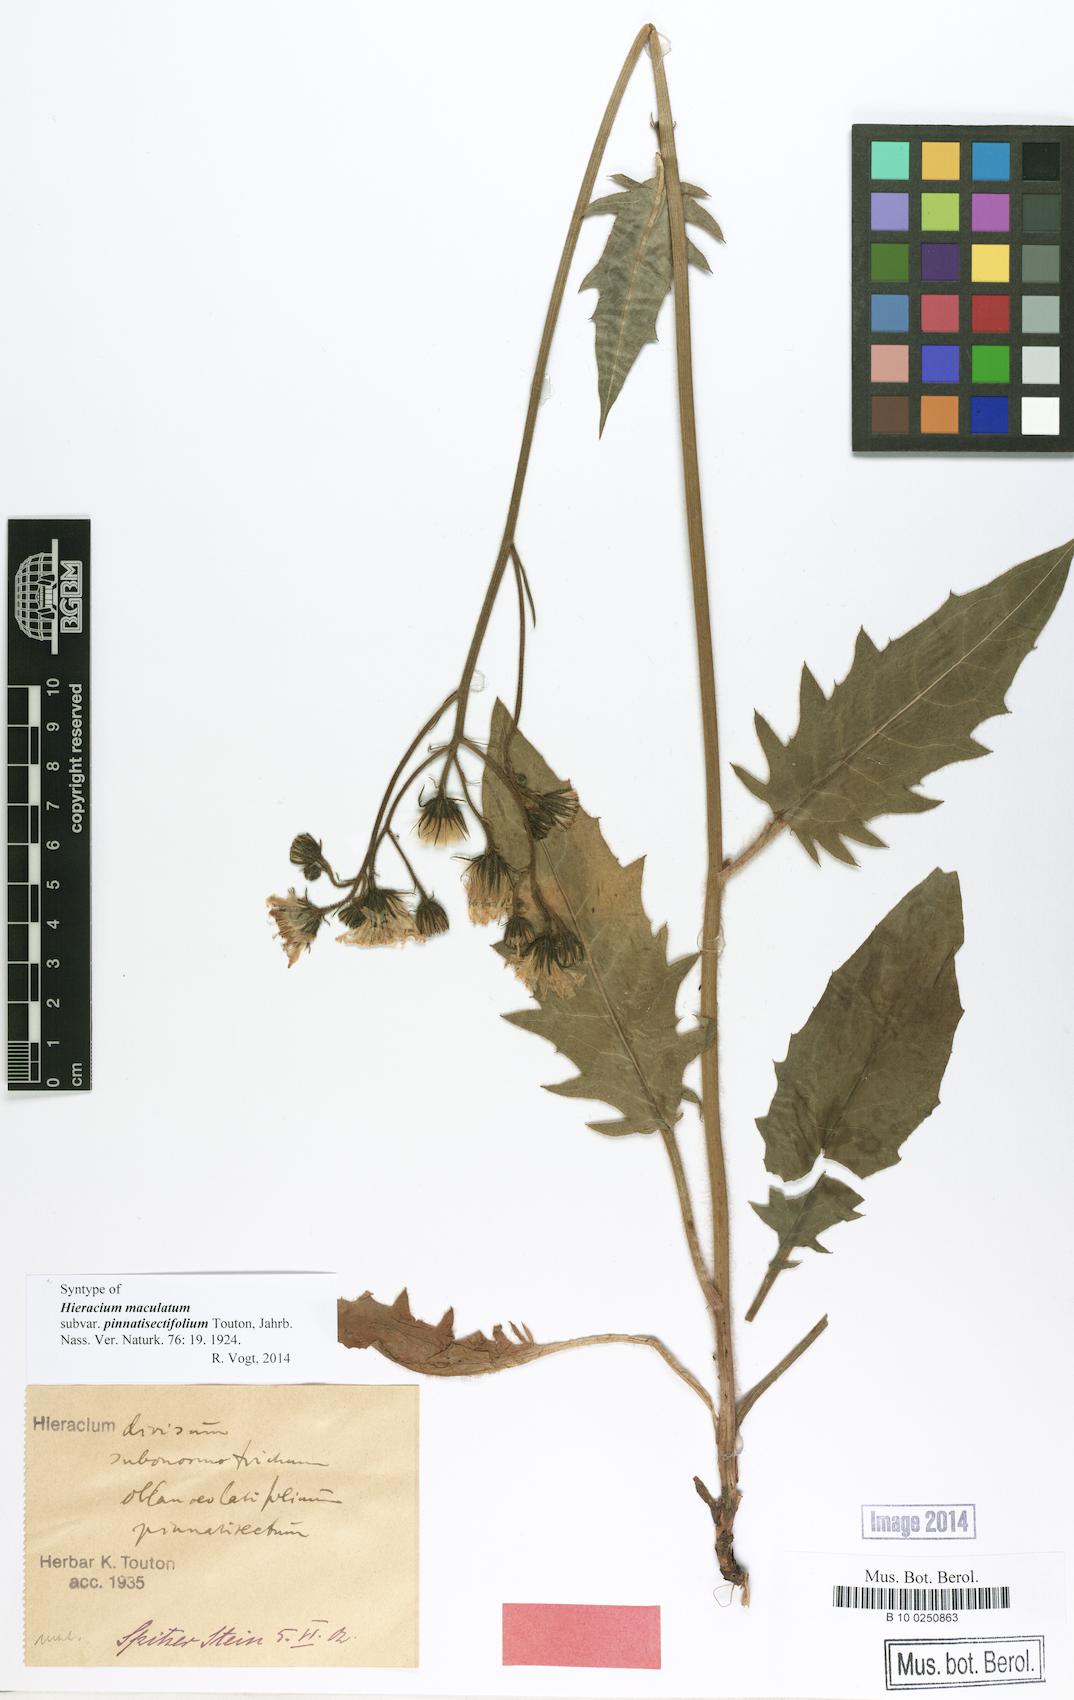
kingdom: Plantae
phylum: Tracheophyta
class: Magnoliopsida
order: Asterales
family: Asteraceae
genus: Hieracium
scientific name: Hieracium maculatum
